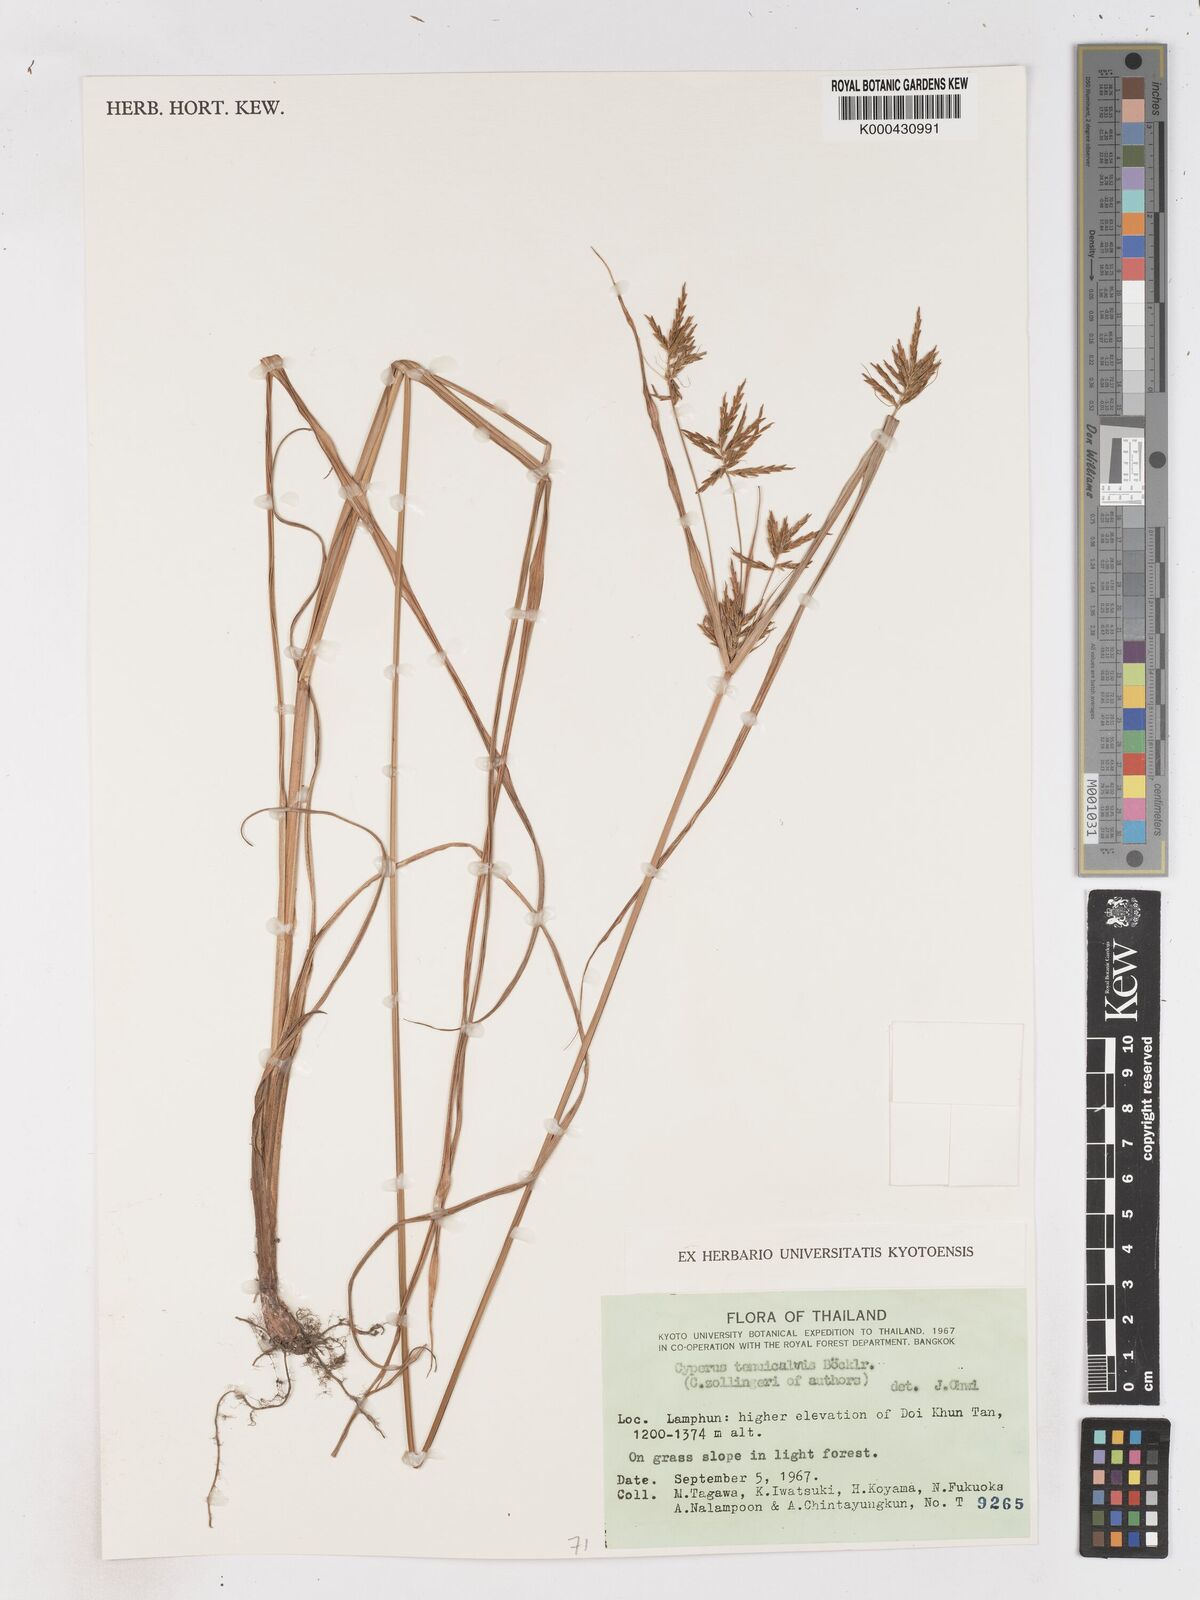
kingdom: Plantae
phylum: Tracheophyta
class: Liliopsida
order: Poales
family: Cyperaceae
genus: Cyperus
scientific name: Cyperus tenuiculmis
